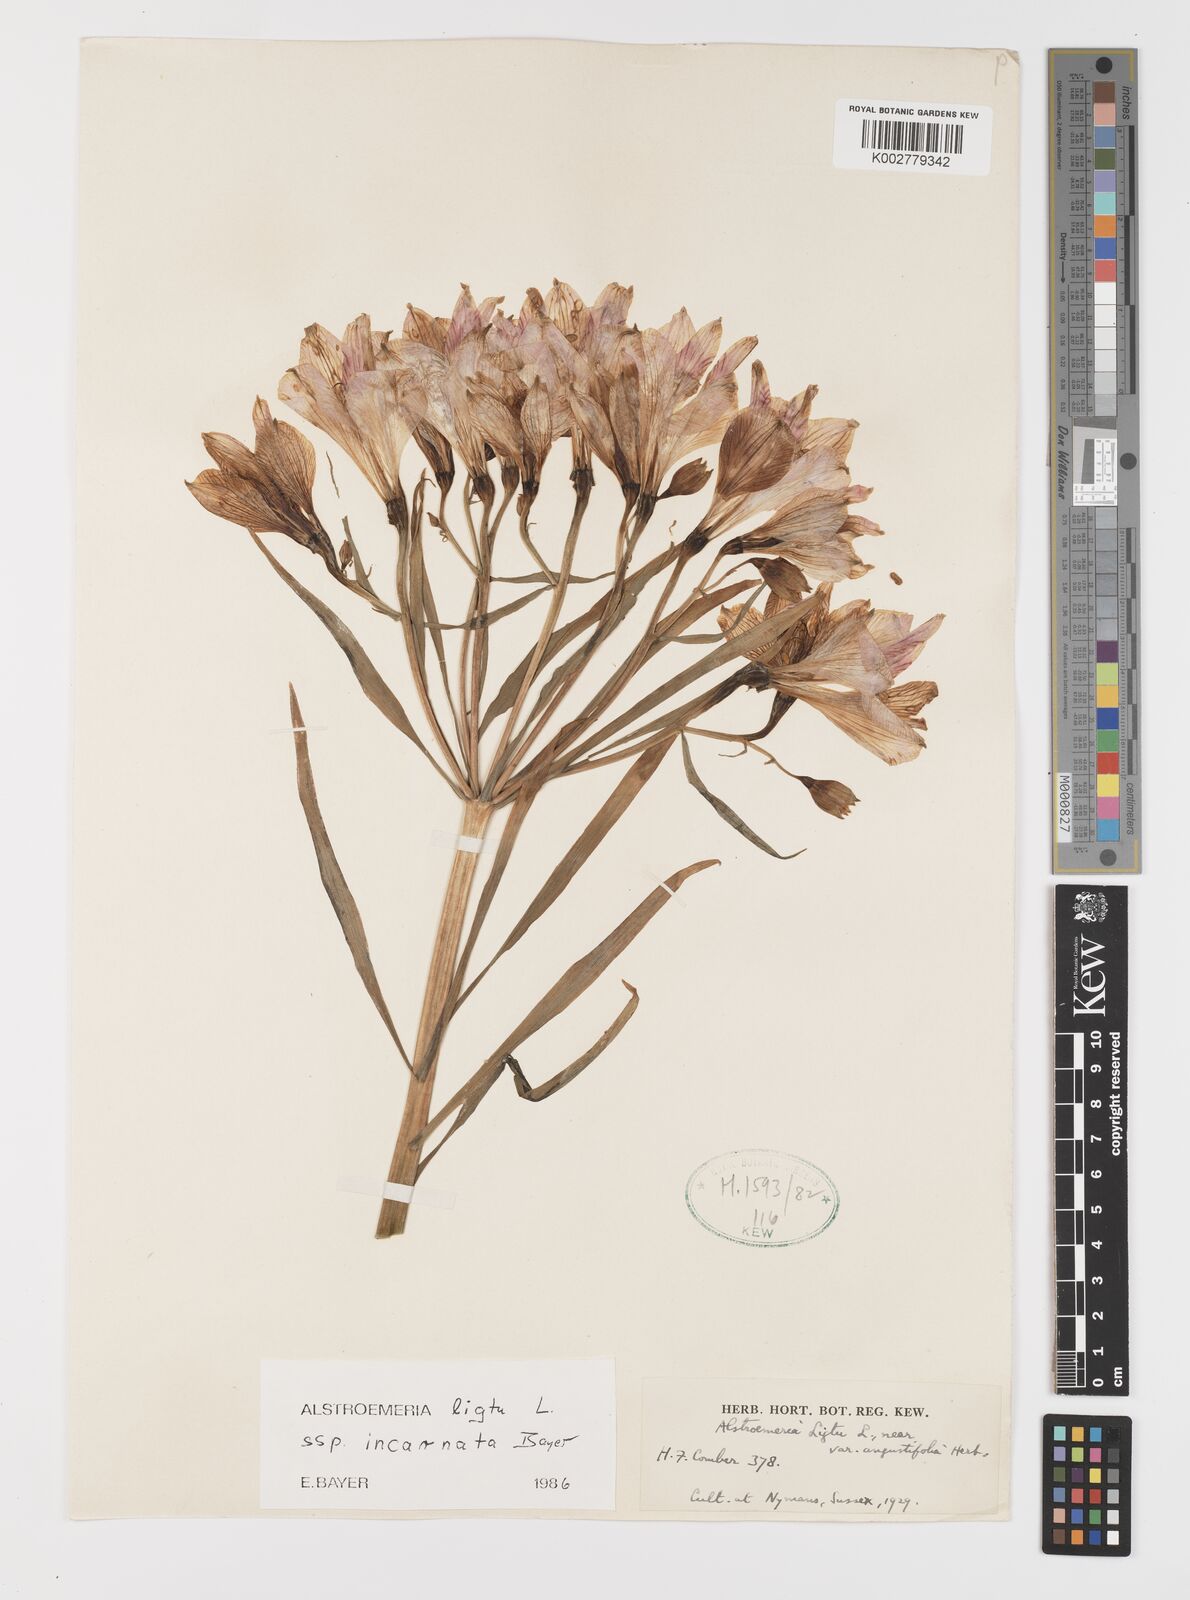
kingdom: Plantae
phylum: Tracheophyta
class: Liliopsida
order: Liliales
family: Alstroemeriaceae
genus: Alstroemeria
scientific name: Alstroemeria ligtu
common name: St. martin's-flower
